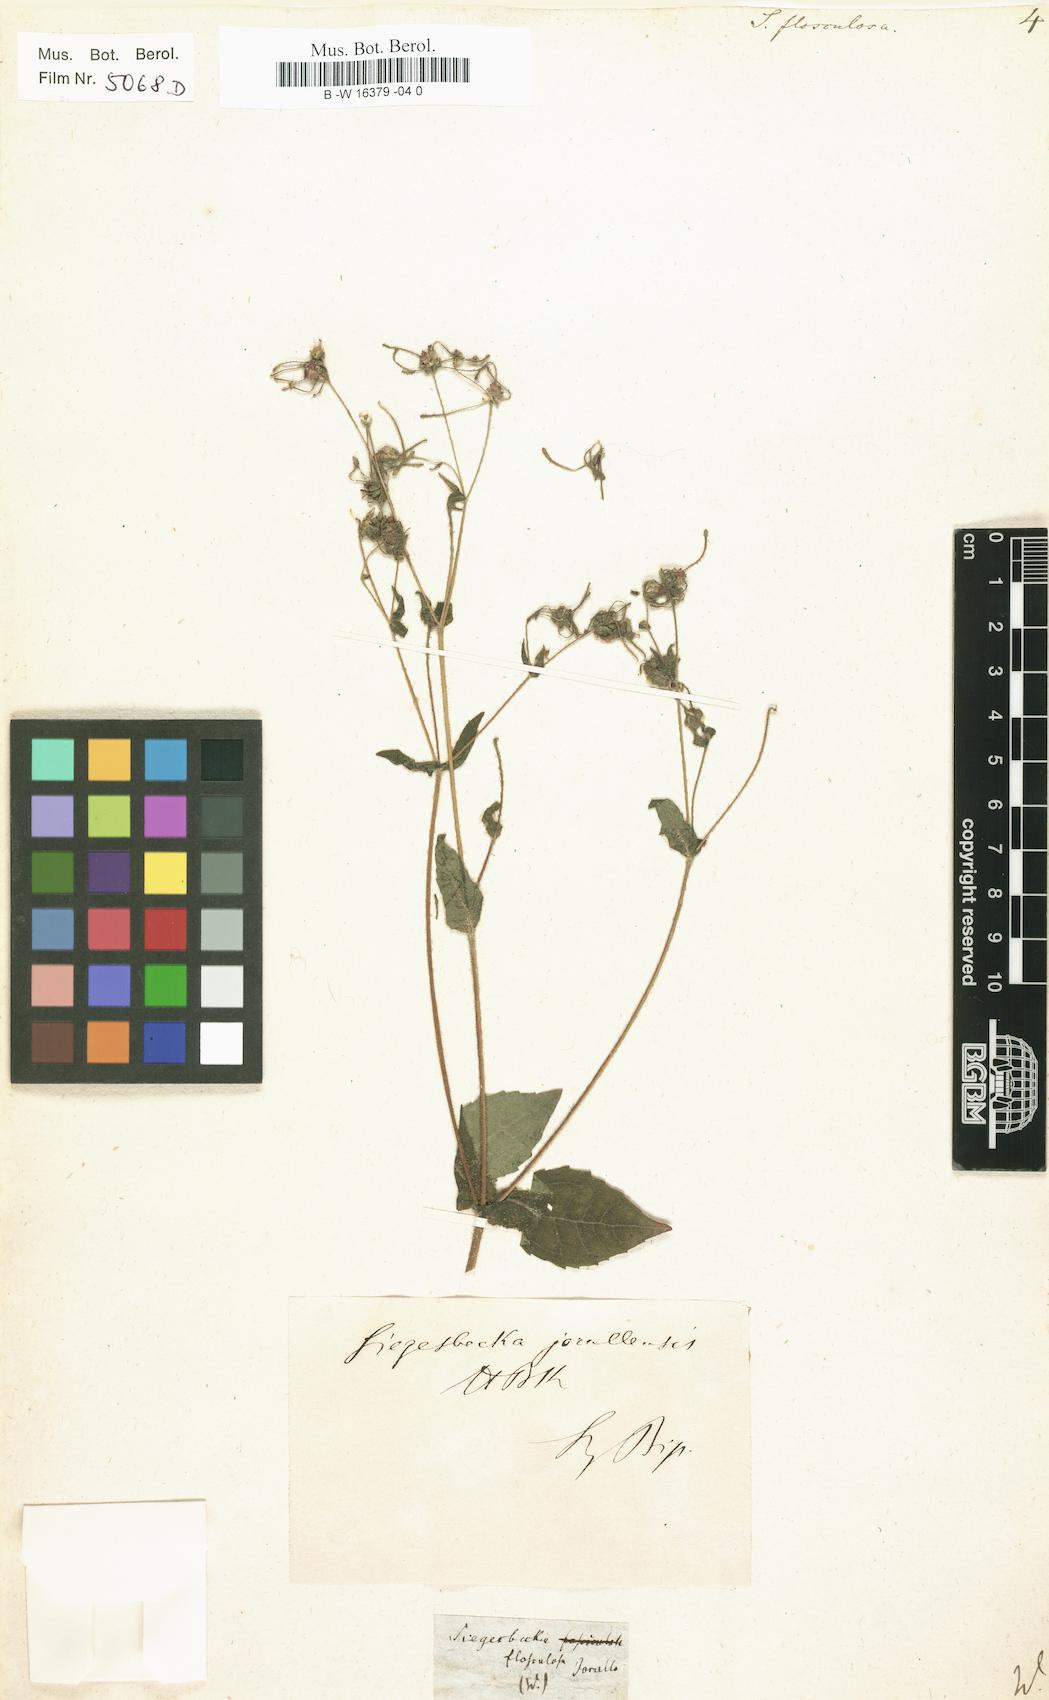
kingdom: Plantae
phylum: Tracheophyta
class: Magnoliopsida
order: Asterales
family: Asteraceae
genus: Siegesbeckia
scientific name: Siegesbeckia
